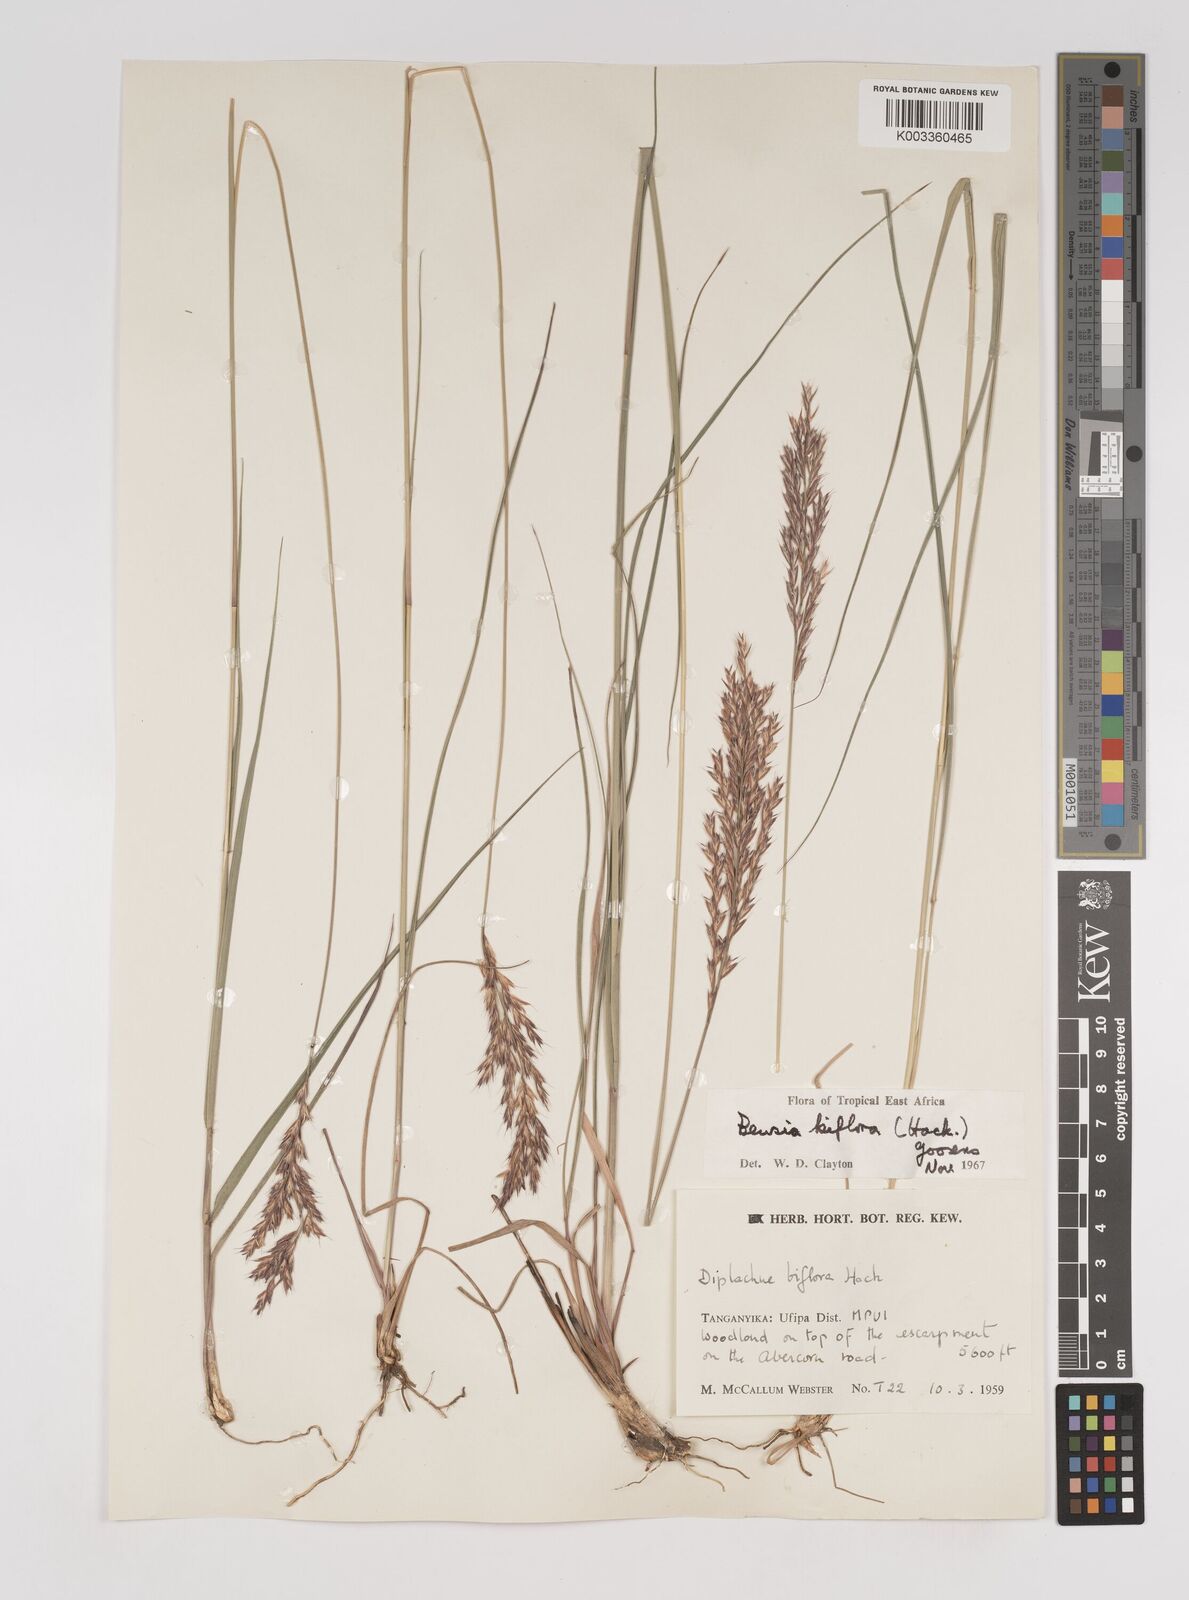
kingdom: Plantae
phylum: Tracheophyta
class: Liliopsida
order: Poales
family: Poaceae
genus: Bewsia
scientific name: Bewsia biflora
